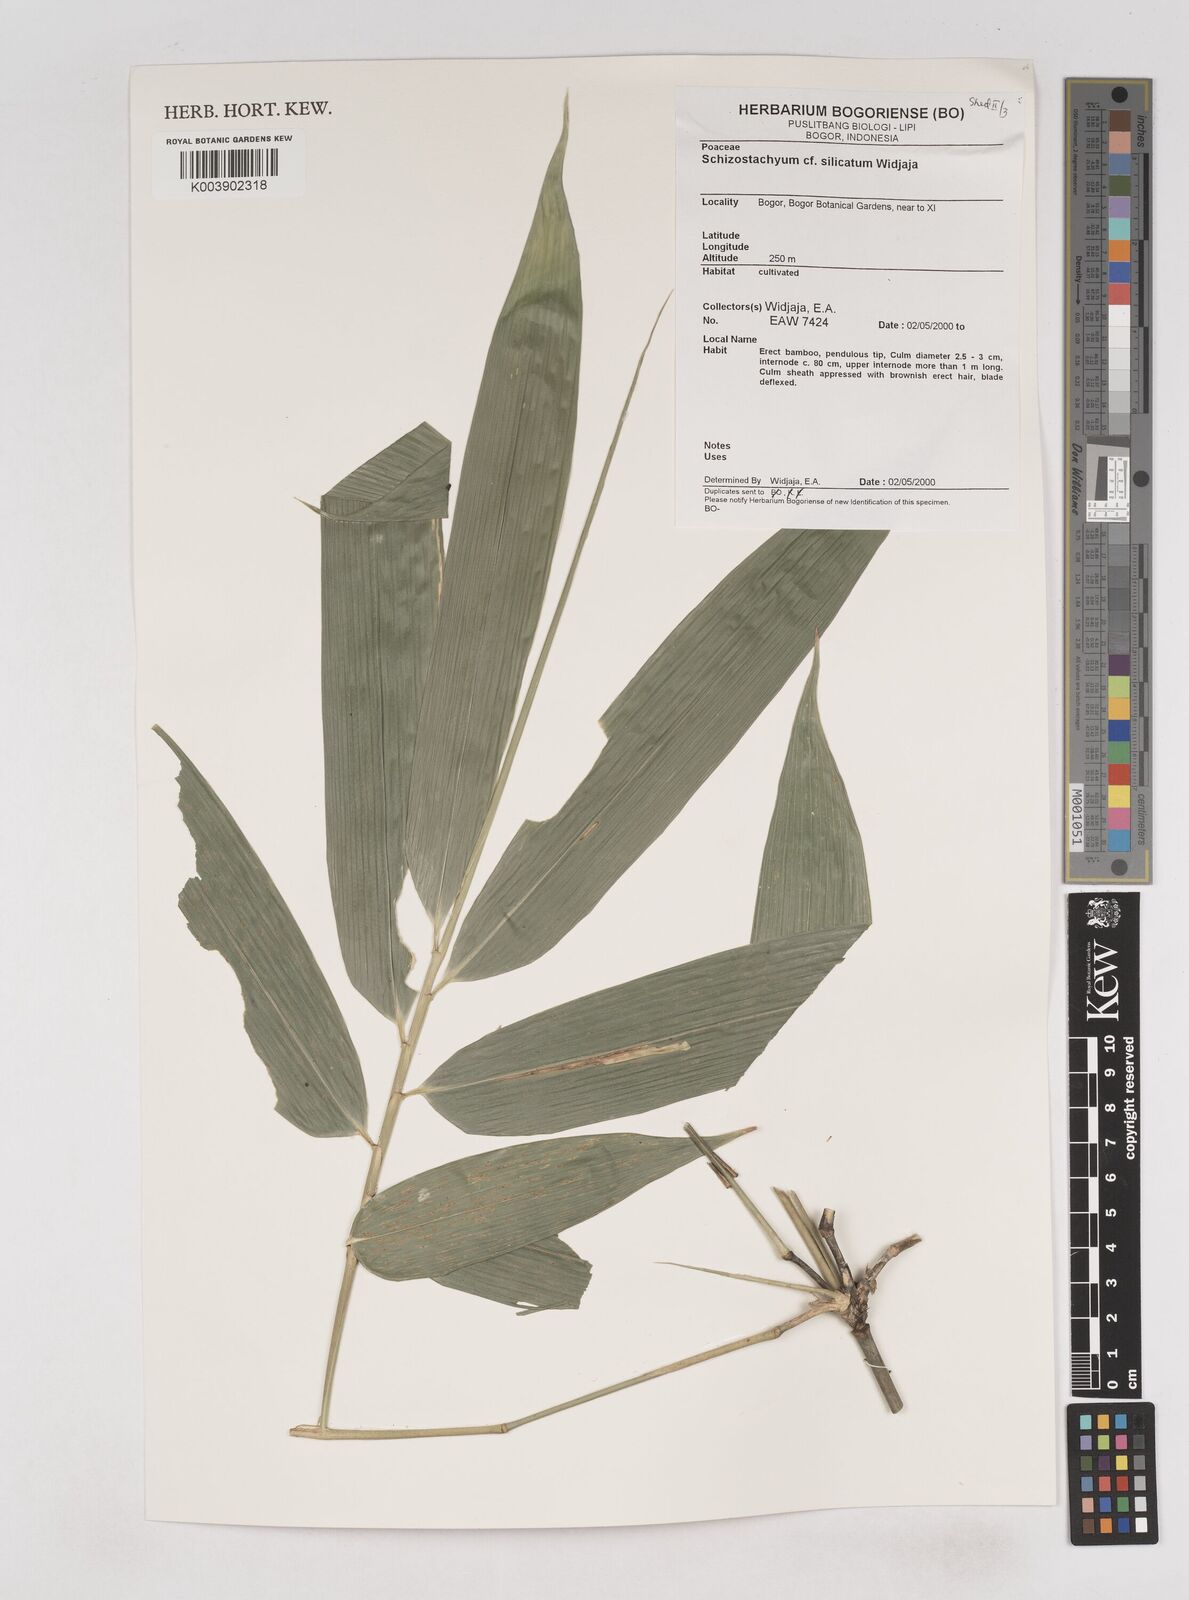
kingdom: Plantae
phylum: Tracheophyta
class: Liliopsida
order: Poales
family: Poaceae
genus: Schizostachyum
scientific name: Schizostachyum silicatum
